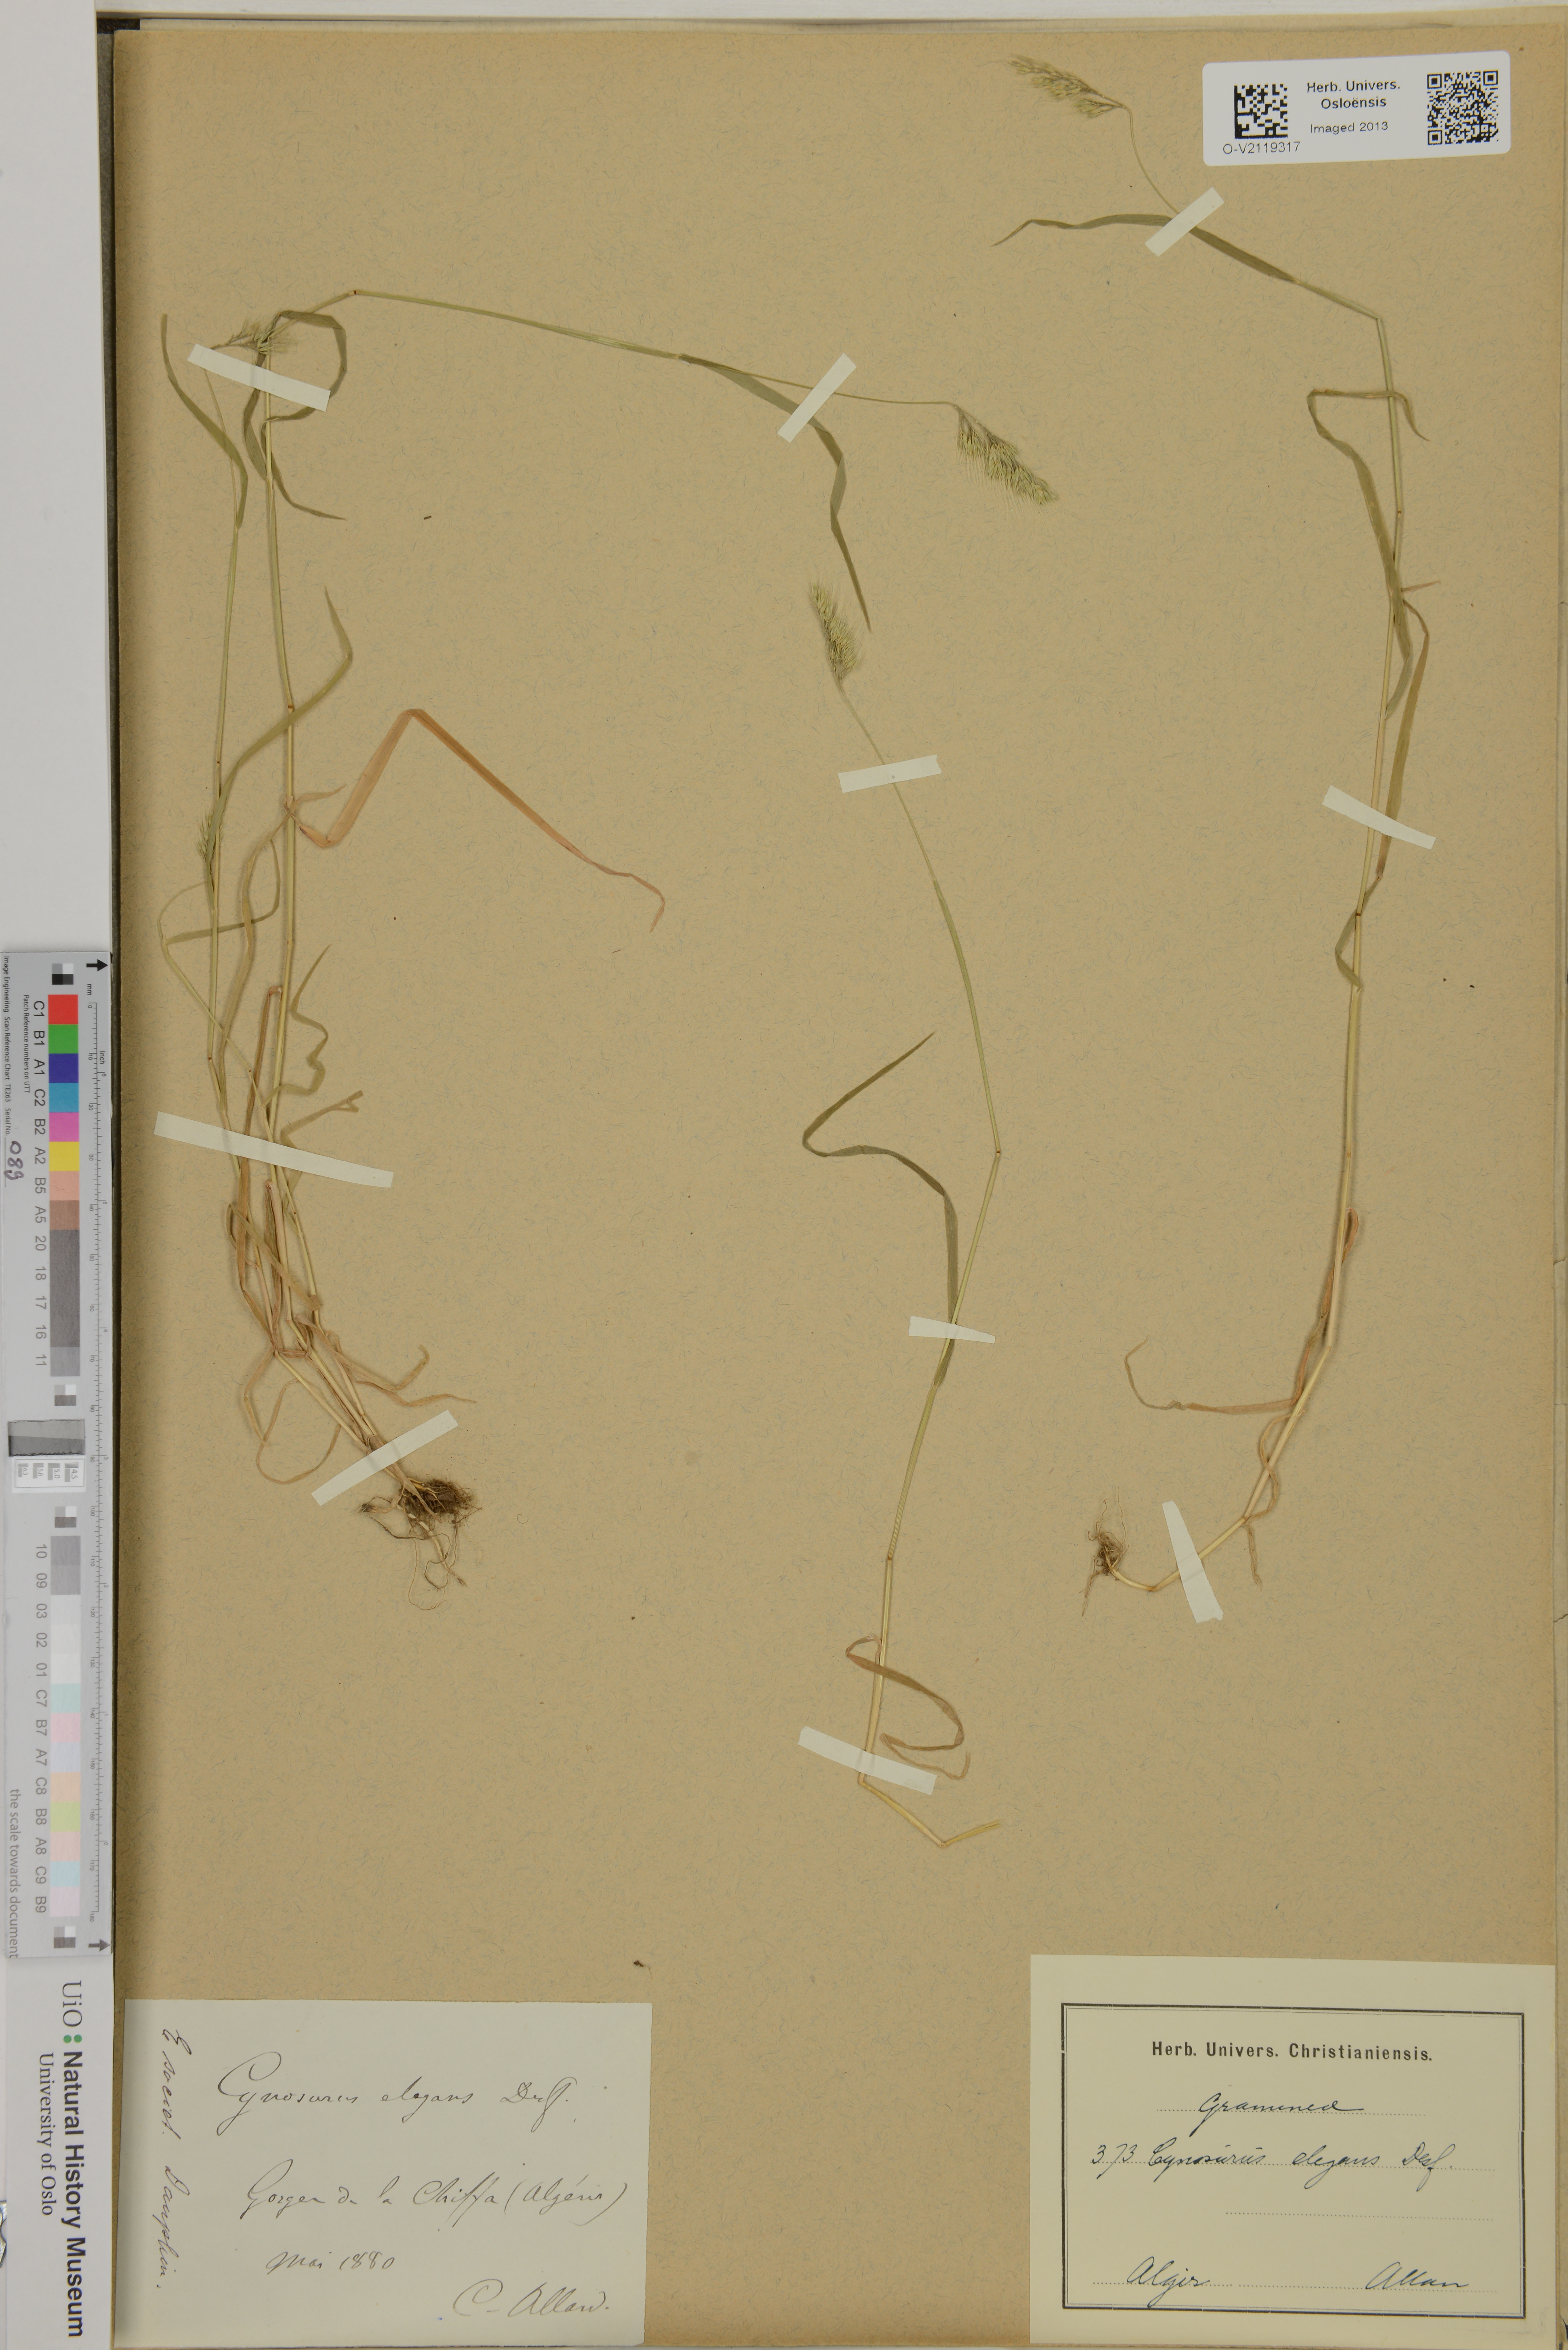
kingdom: Plantae
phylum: Tracheophyta
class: Liliopsida
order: Poales
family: Poaceae
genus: Cynosurus
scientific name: Cynosurus elegans
